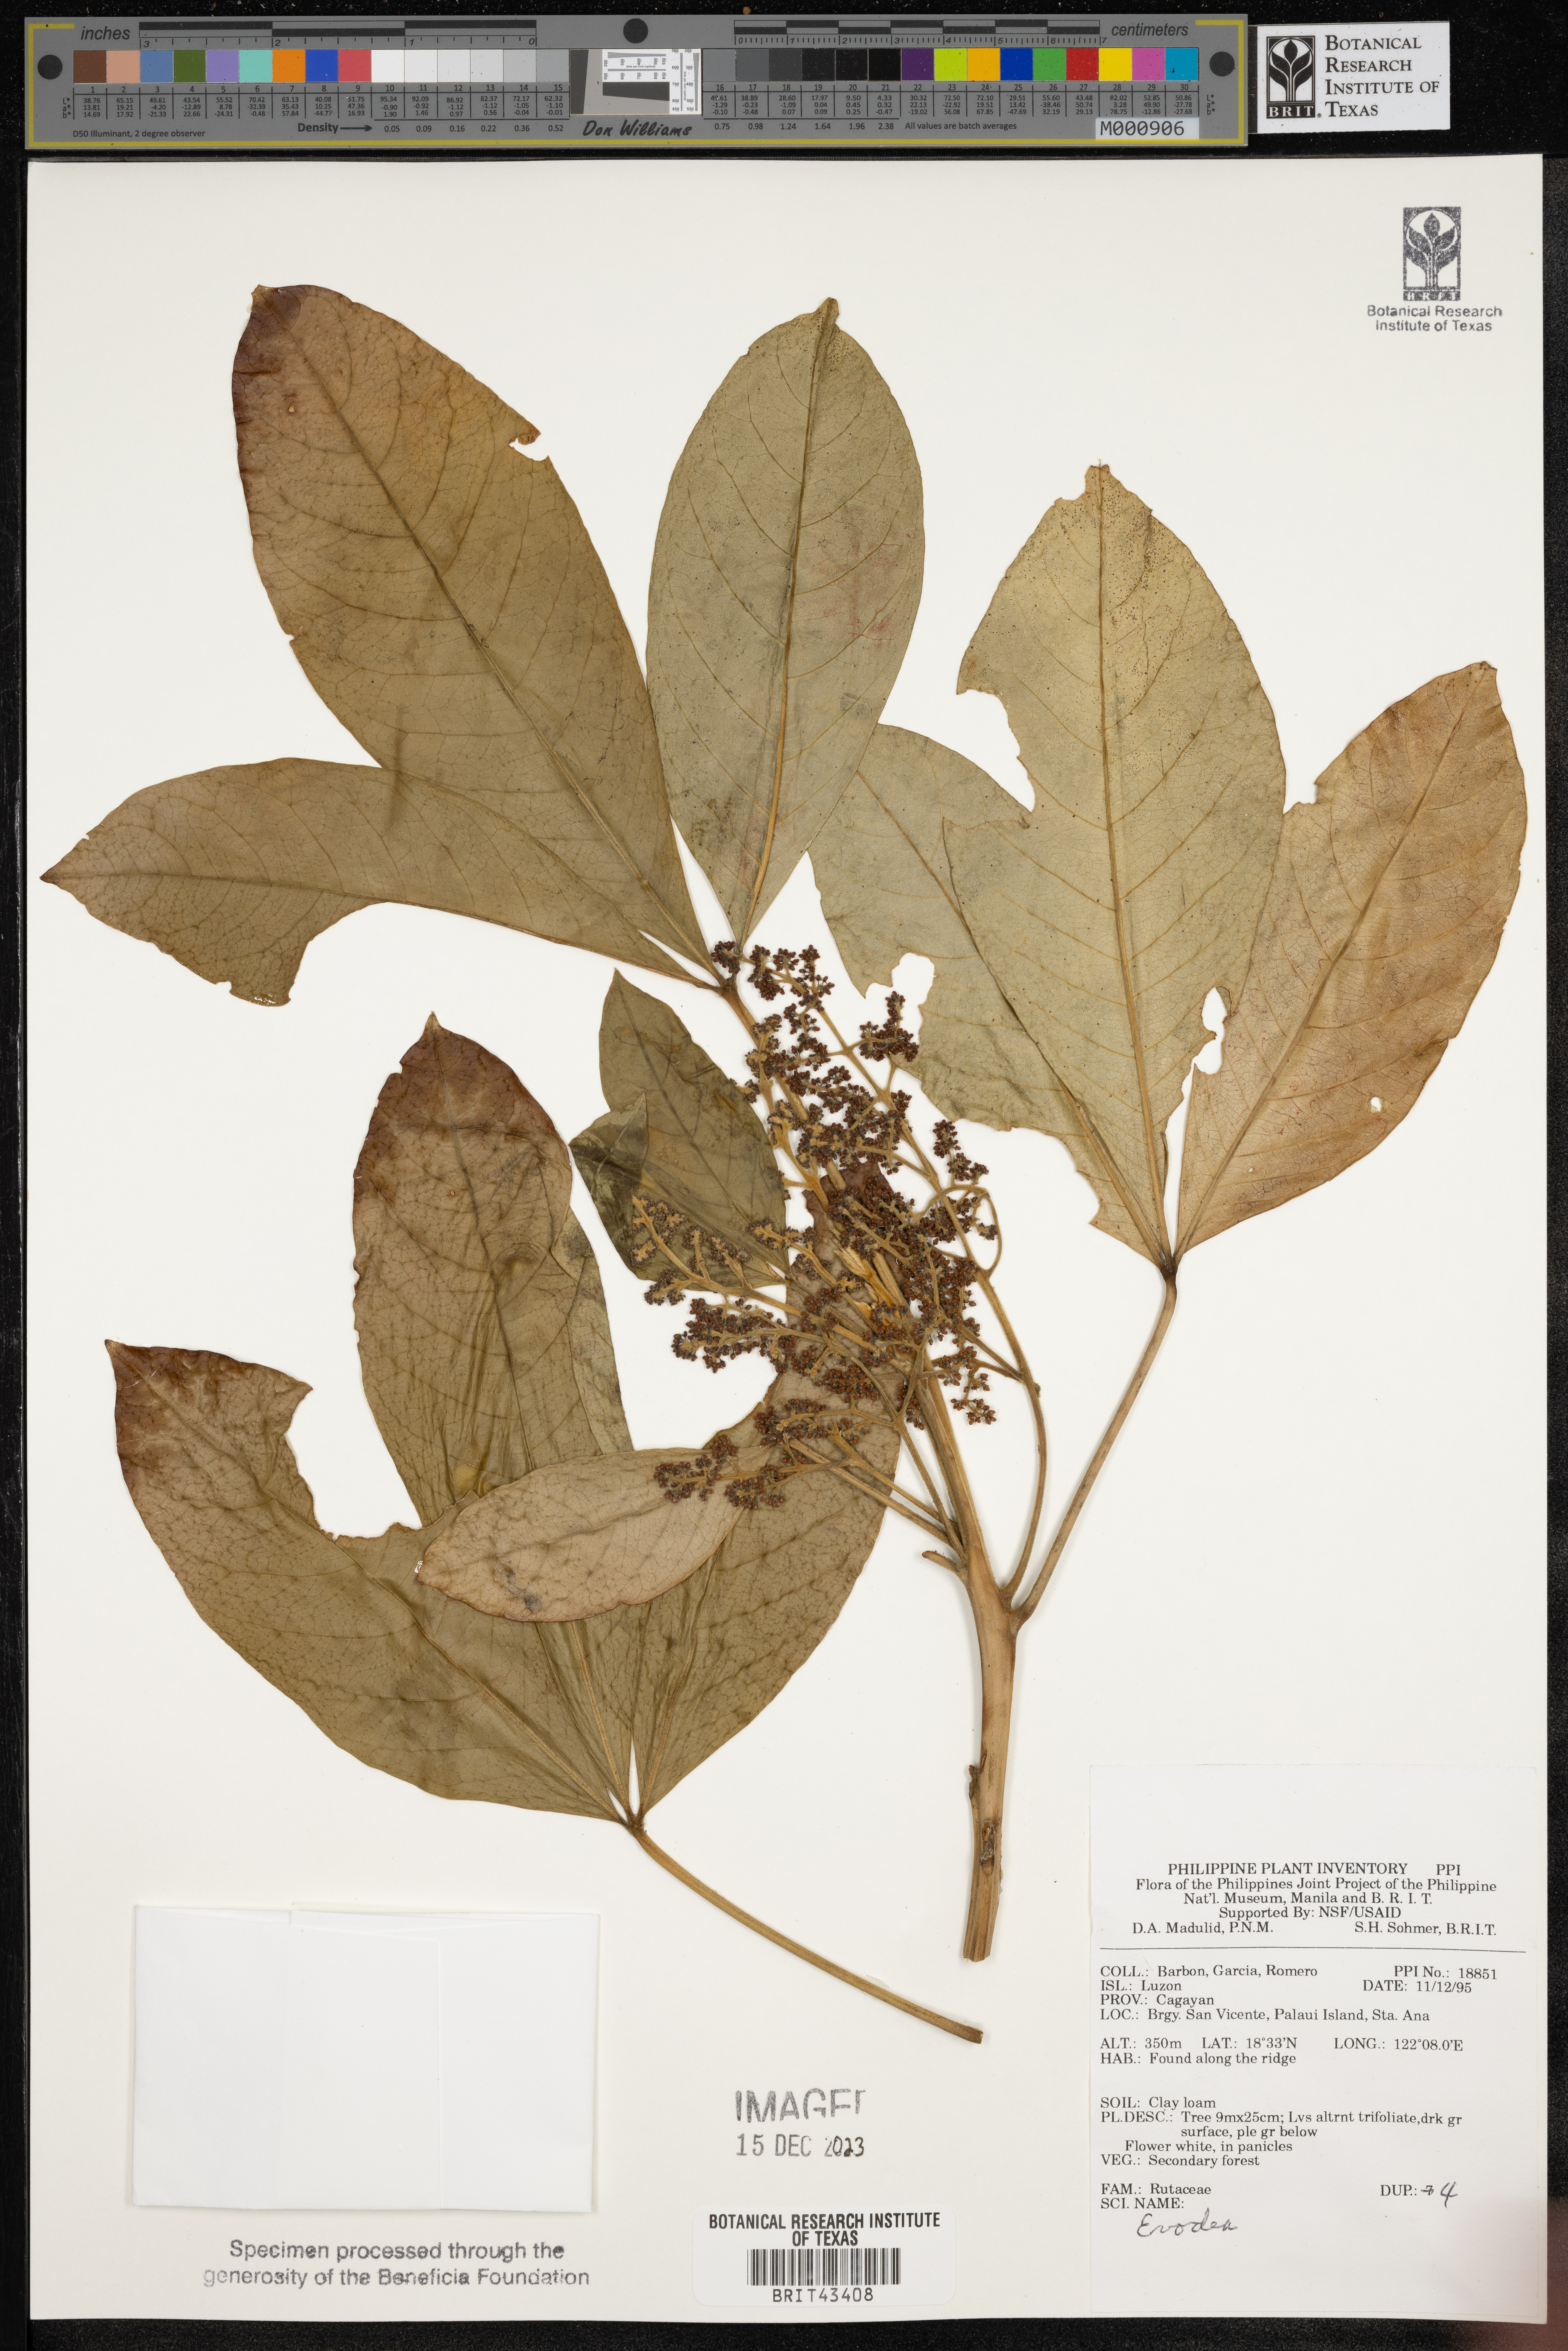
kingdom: Plantae
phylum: Tracheophyta
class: Magnoliopsida
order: Sapindales
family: Rutaceae
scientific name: Rutaceae
